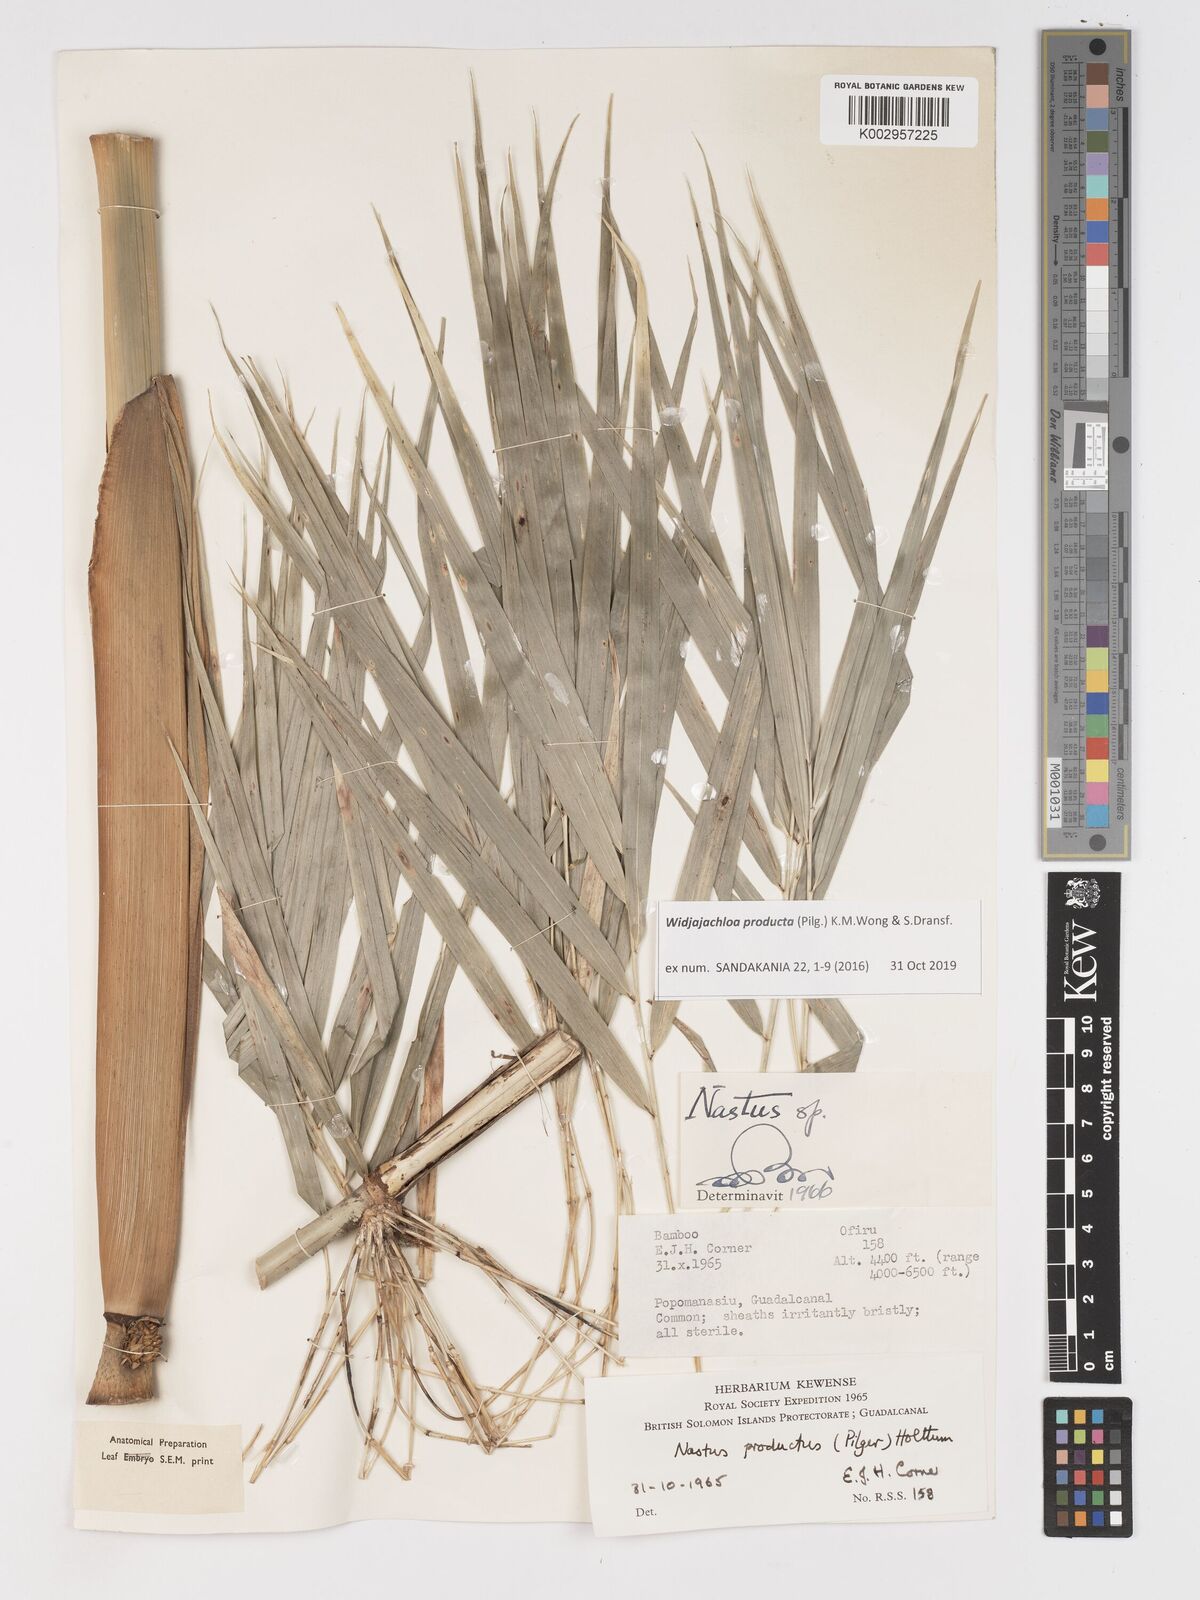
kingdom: Plantae
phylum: Tracheophyta
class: Liliopsida
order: Poales
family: Poaceae
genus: Widjajachloa
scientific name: Widjajachloa
